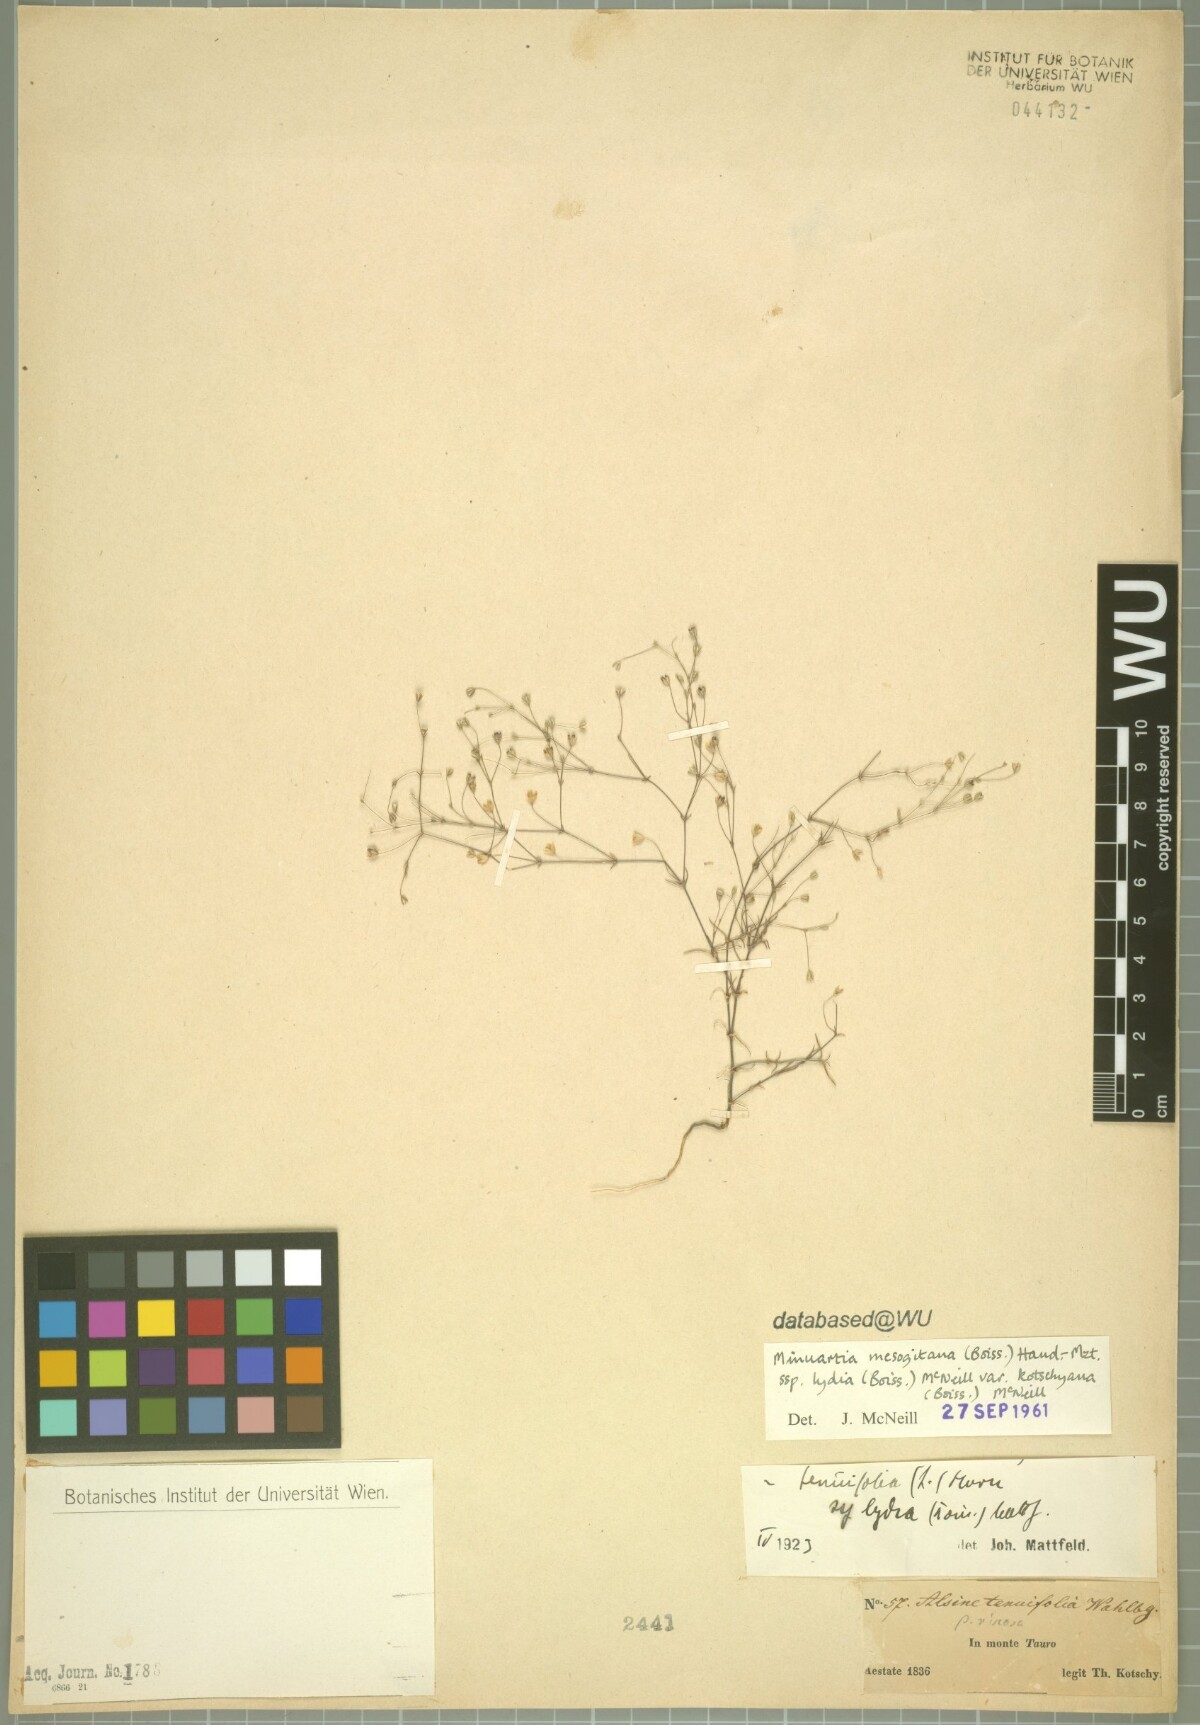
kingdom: Plantae
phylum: Tracheophyta
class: Magnoliopsida
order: Caryophyllales
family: Caryophyllaceae
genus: Sabulina
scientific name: Sabulina mesogitana
